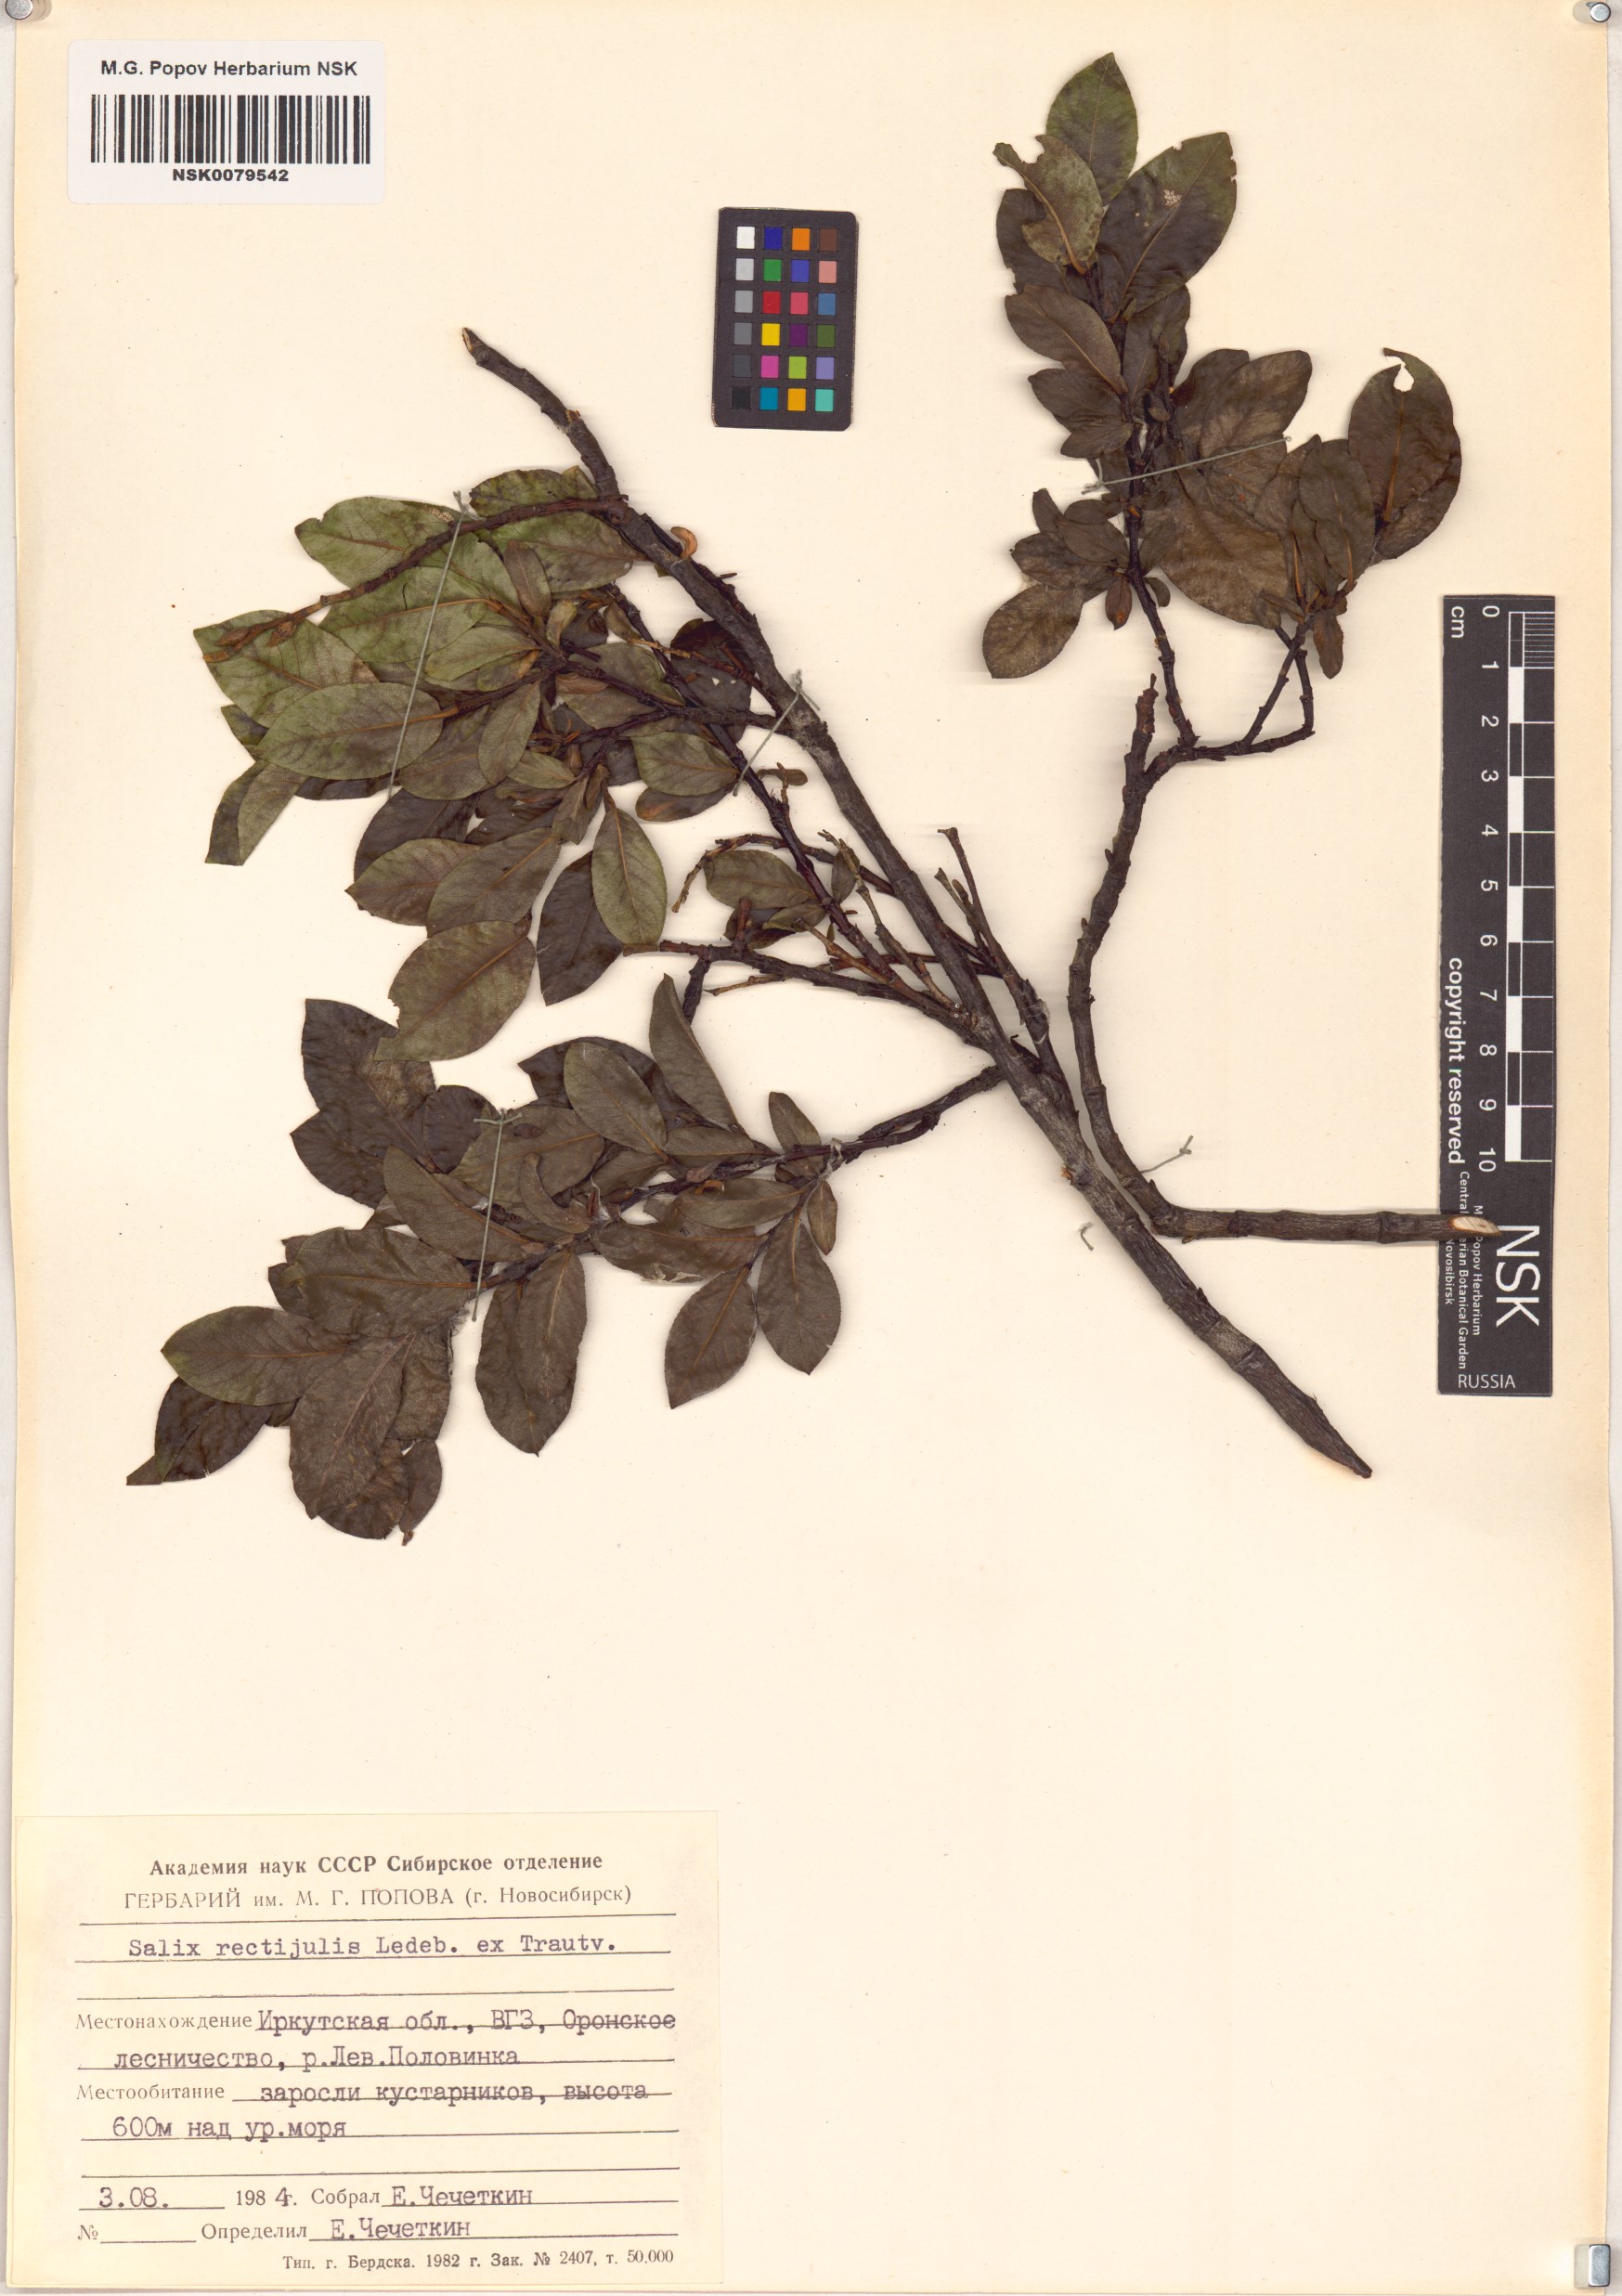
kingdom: Plantae
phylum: Tracheophyta
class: Magnoliopsida
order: Malpighiales
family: Salicaceae
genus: Salix
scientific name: Salix rectijulis
